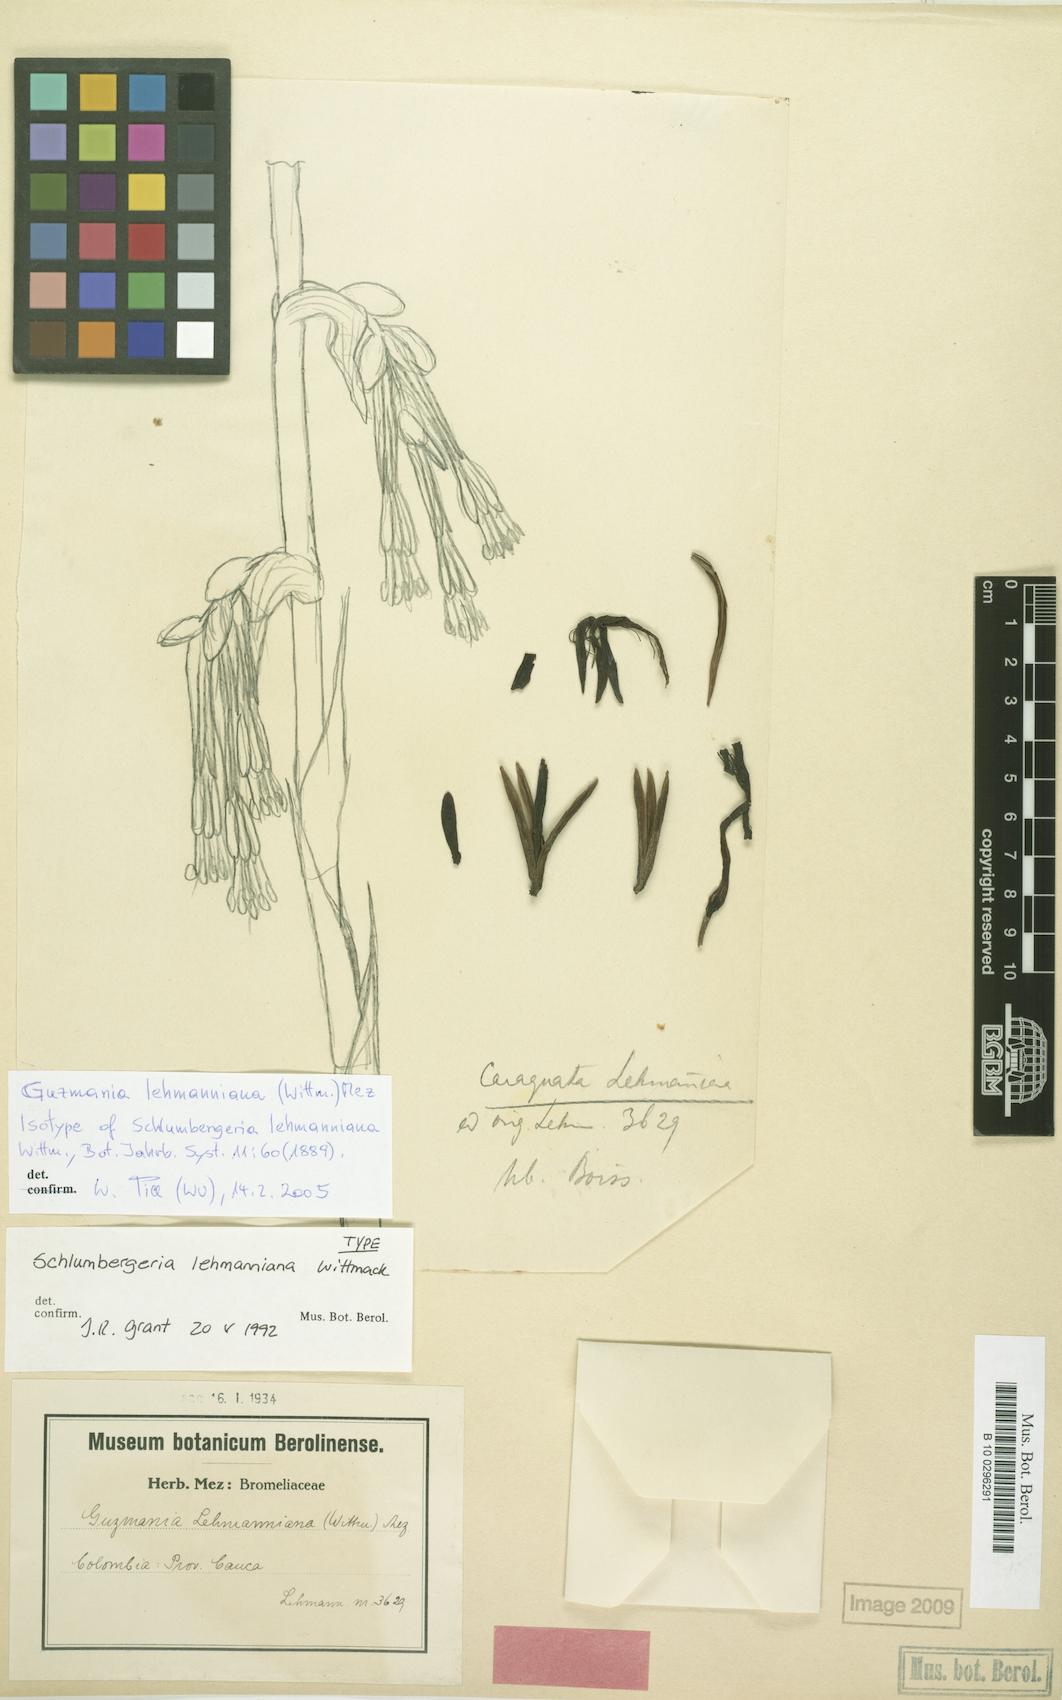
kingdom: Plantae
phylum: Tracheophyta
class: Liliopsida
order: Poales
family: Bromeliaceae
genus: Guzmania
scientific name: Guzmania lehmanniana
